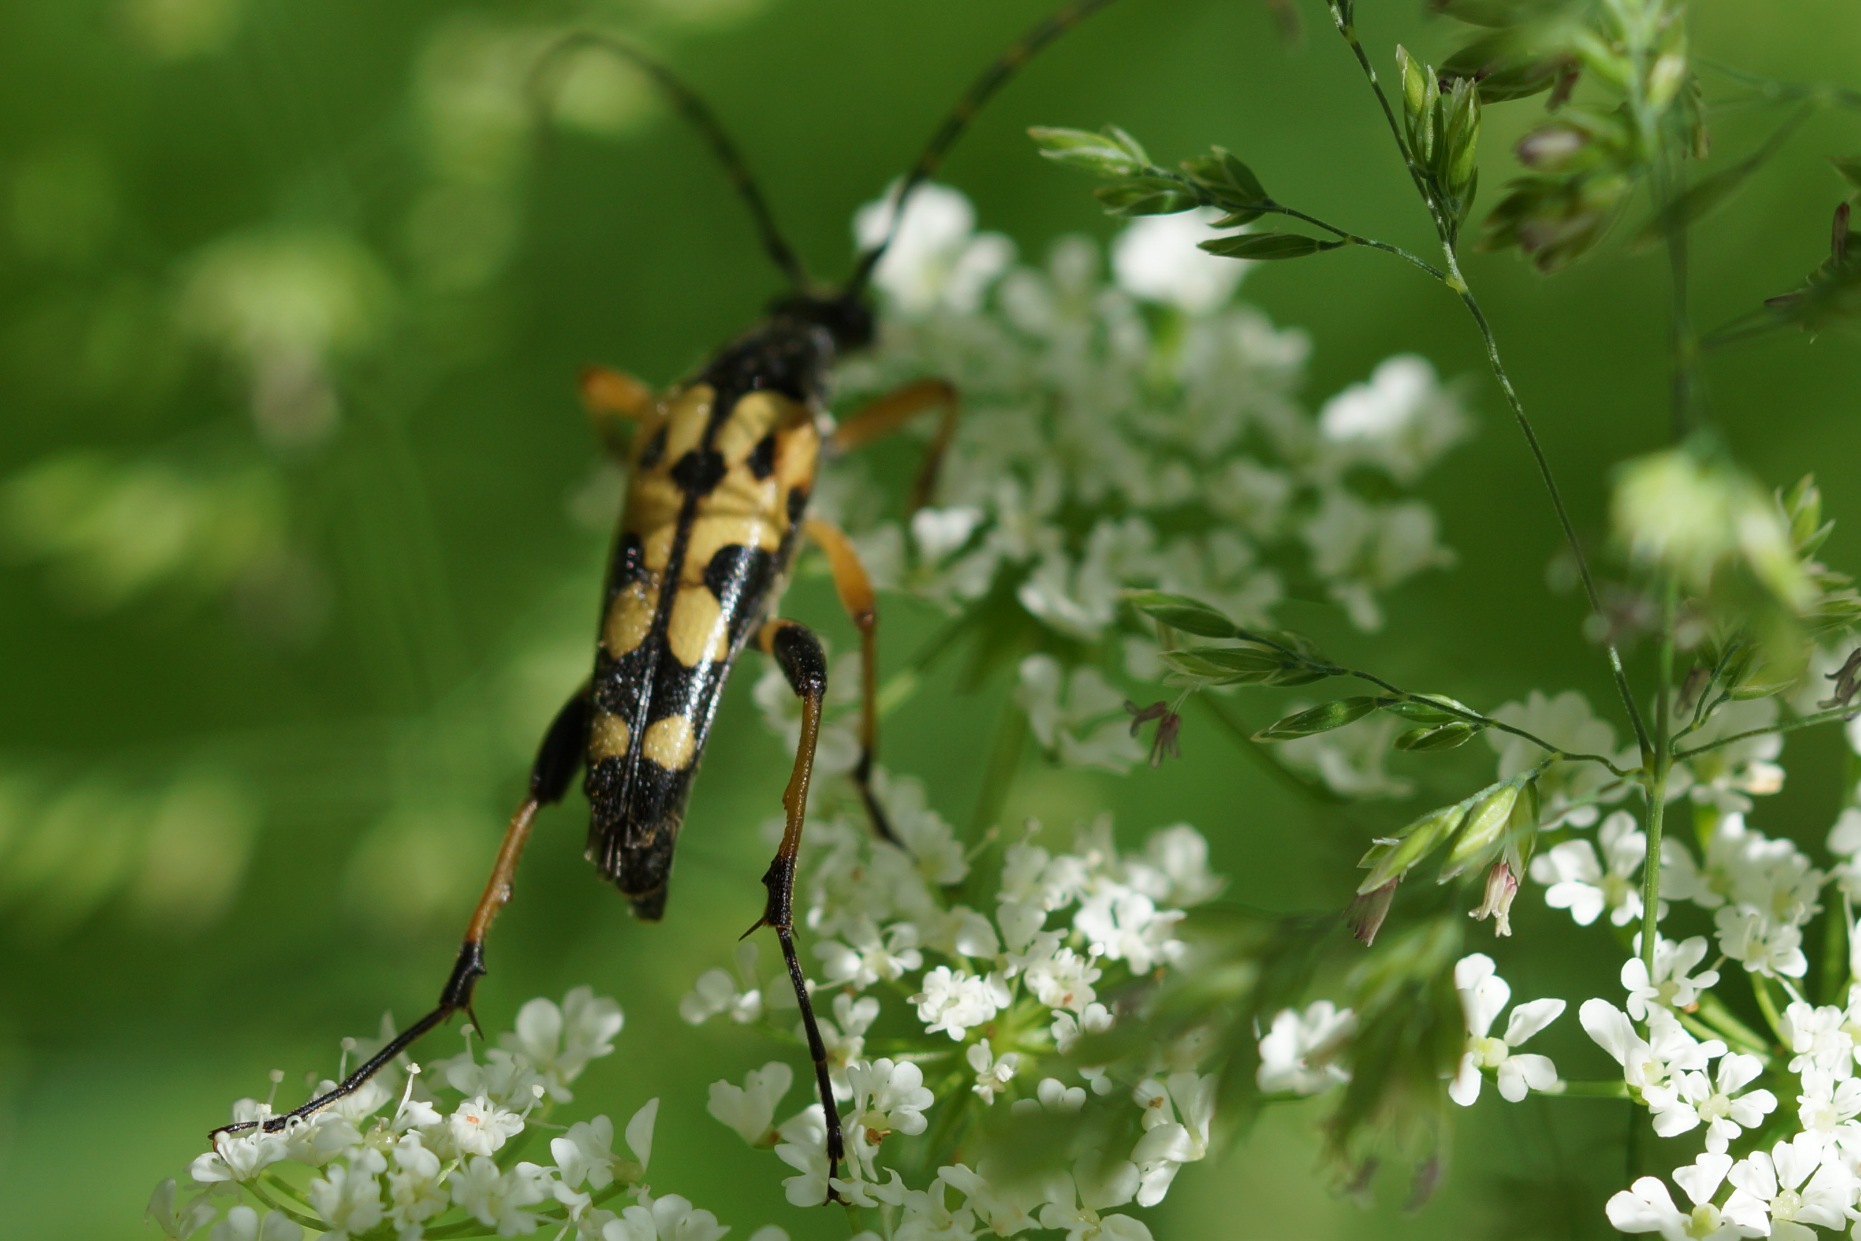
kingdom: Animalia
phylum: Arthropoda
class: Insecta
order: Coleoptera
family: Cerambycidae
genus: Rutpela
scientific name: Rutpela maculata
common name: Sydlig blomsterbuk
